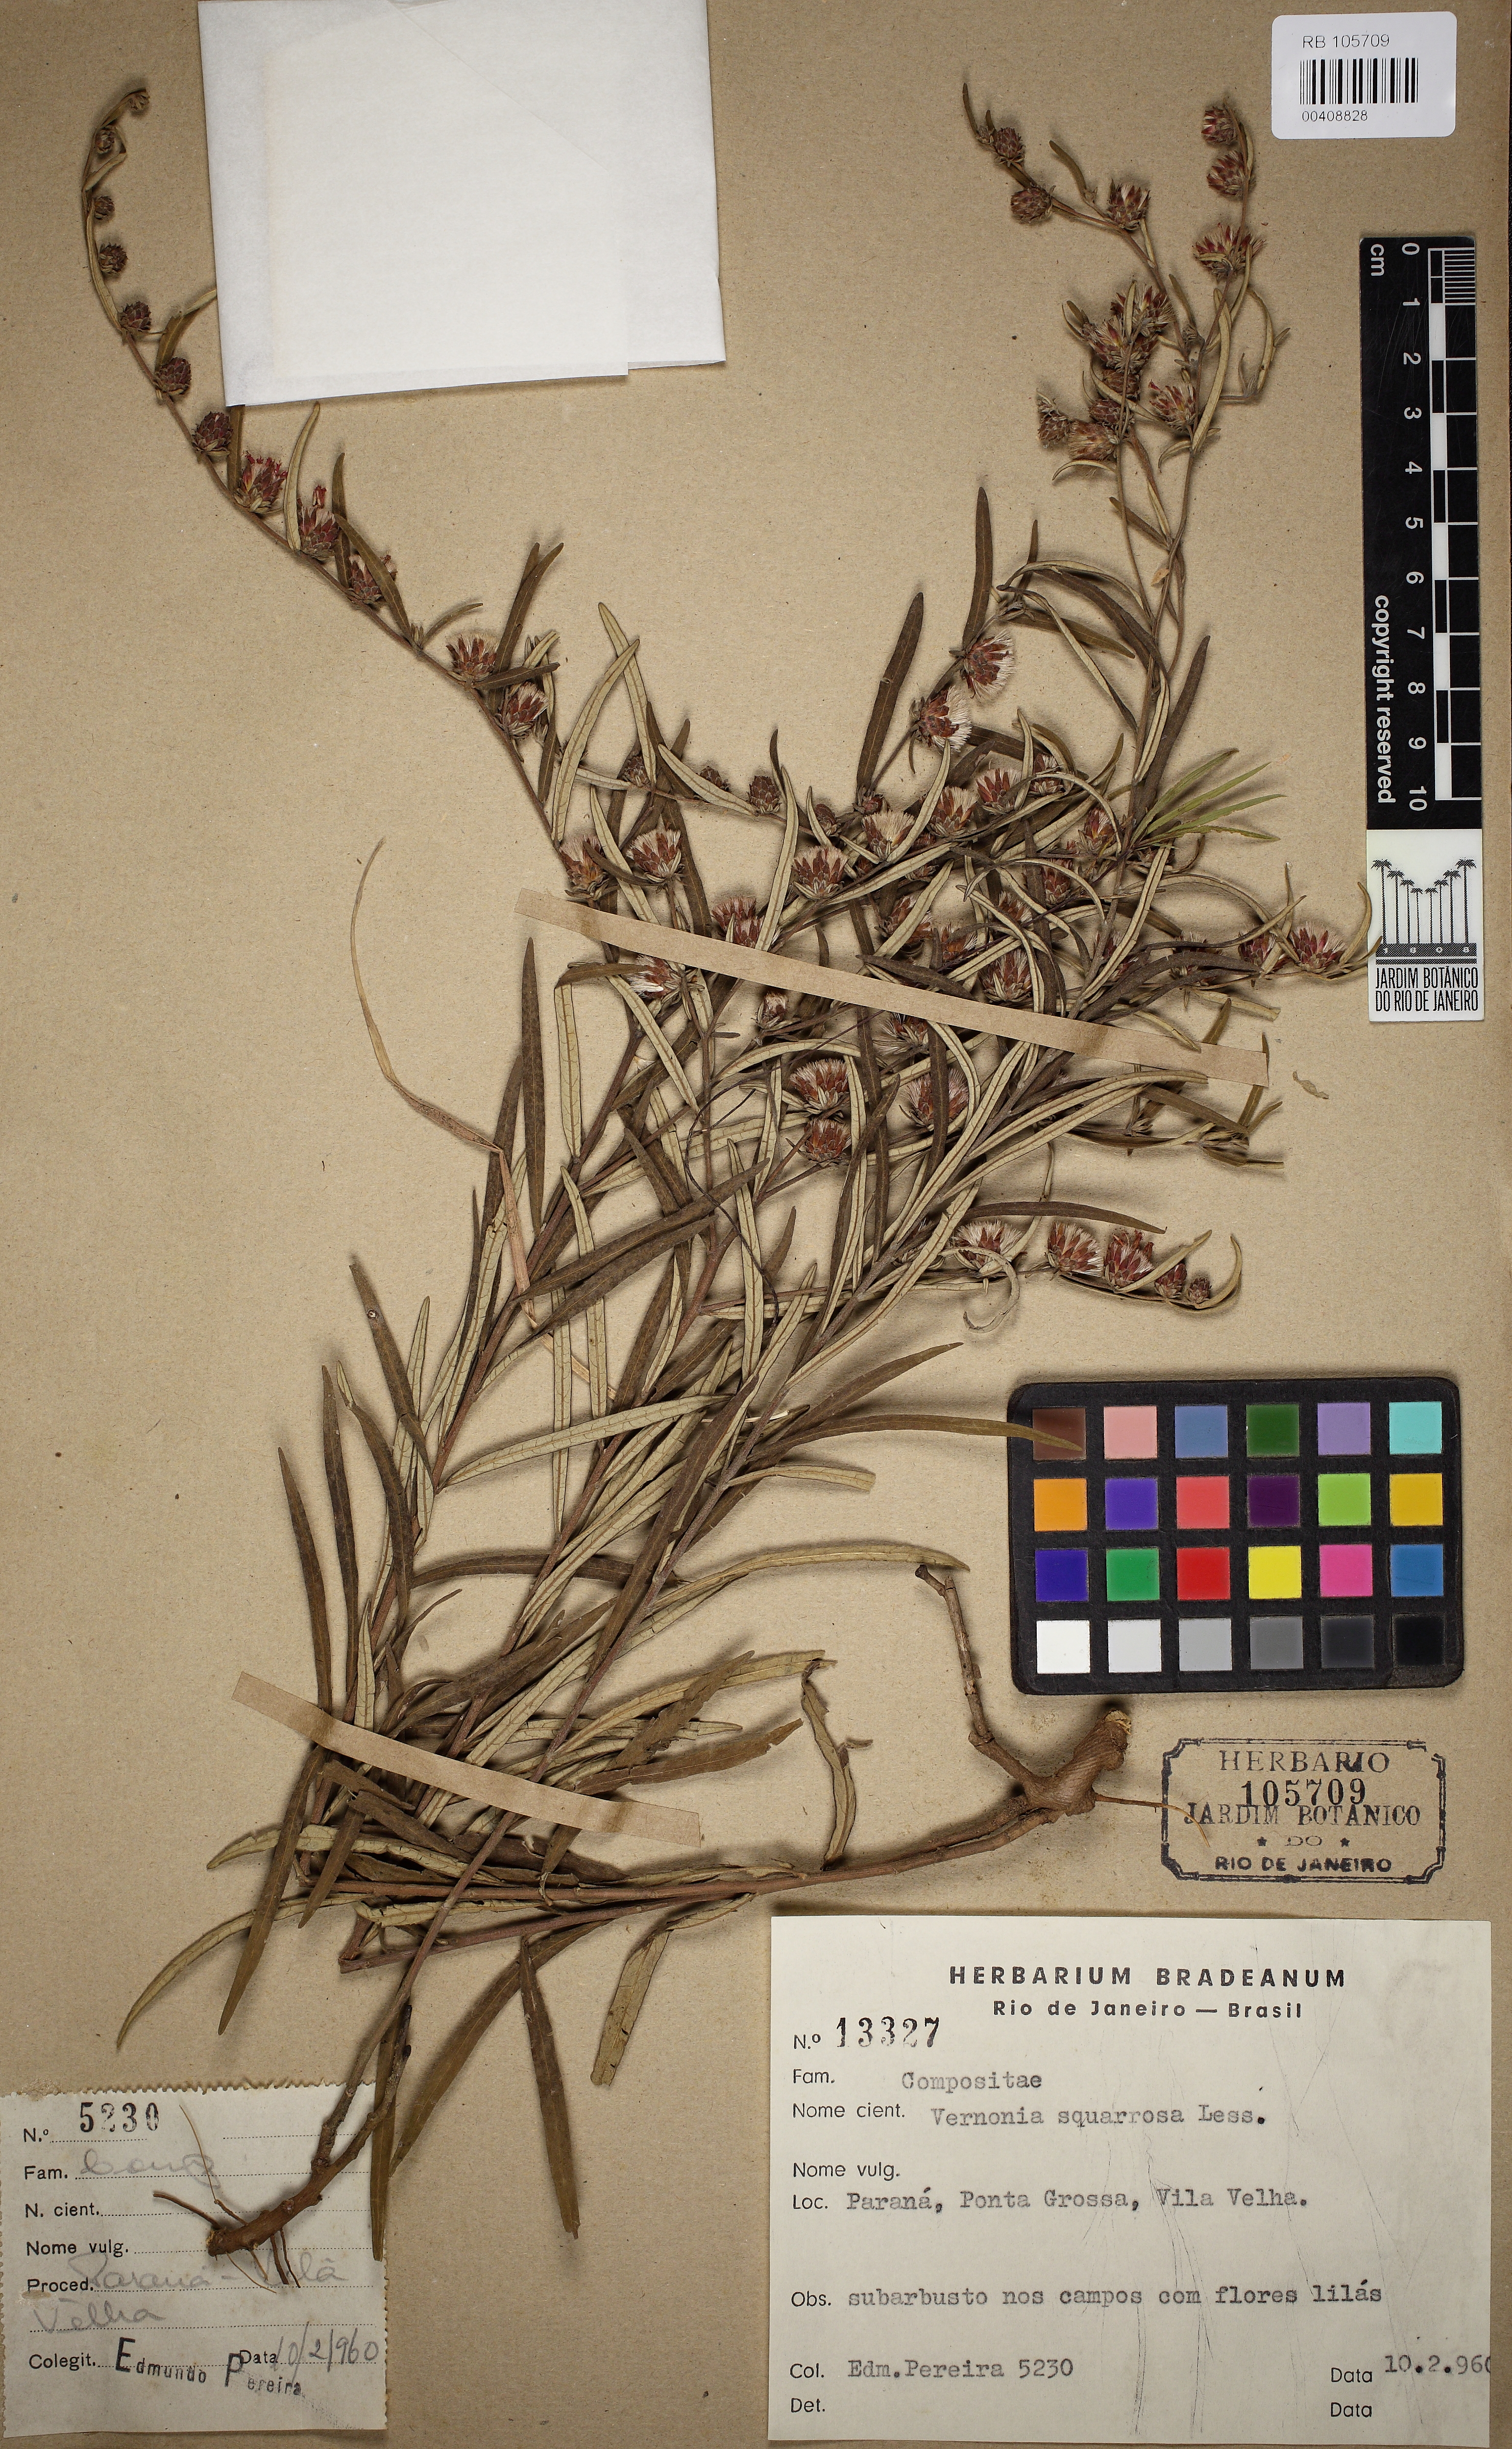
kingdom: Plantae
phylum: Tracheophyta
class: Magnoliopsida
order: Asterales
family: Asteraceae
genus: Lessingianthus
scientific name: Lessingianthus plantaginoides
